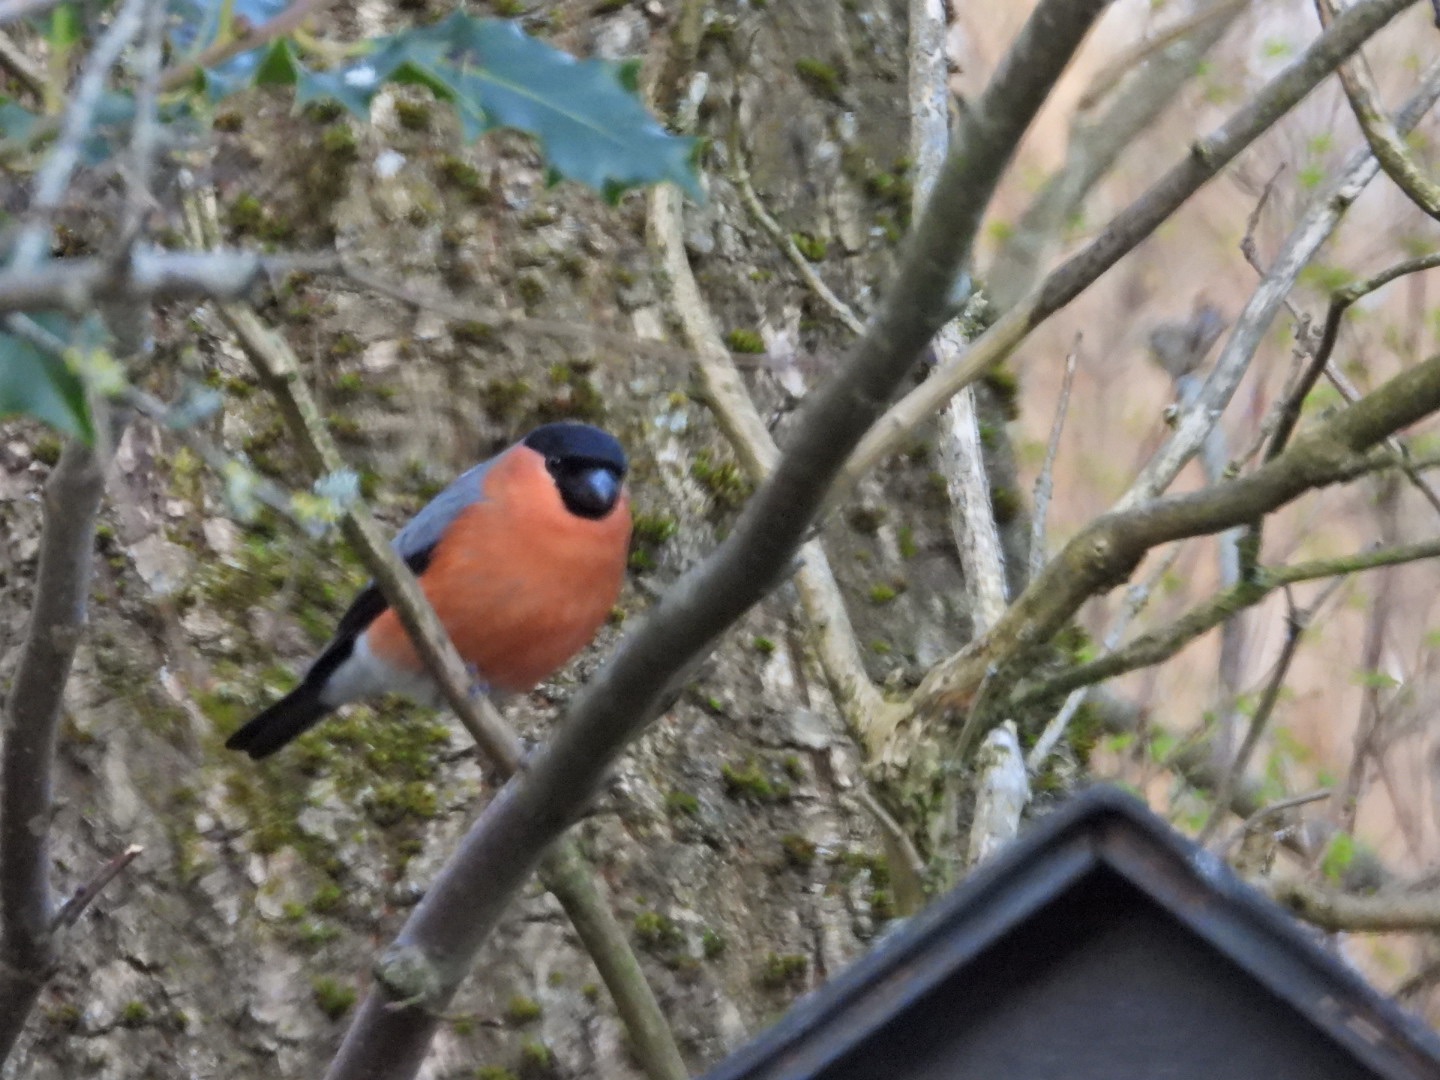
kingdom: Animalia
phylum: Chordata
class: Aves
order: Passeriformes
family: Fringillidae
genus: Pyrrhula
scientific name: Pyrrhula pyrrhula
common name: Dompap
